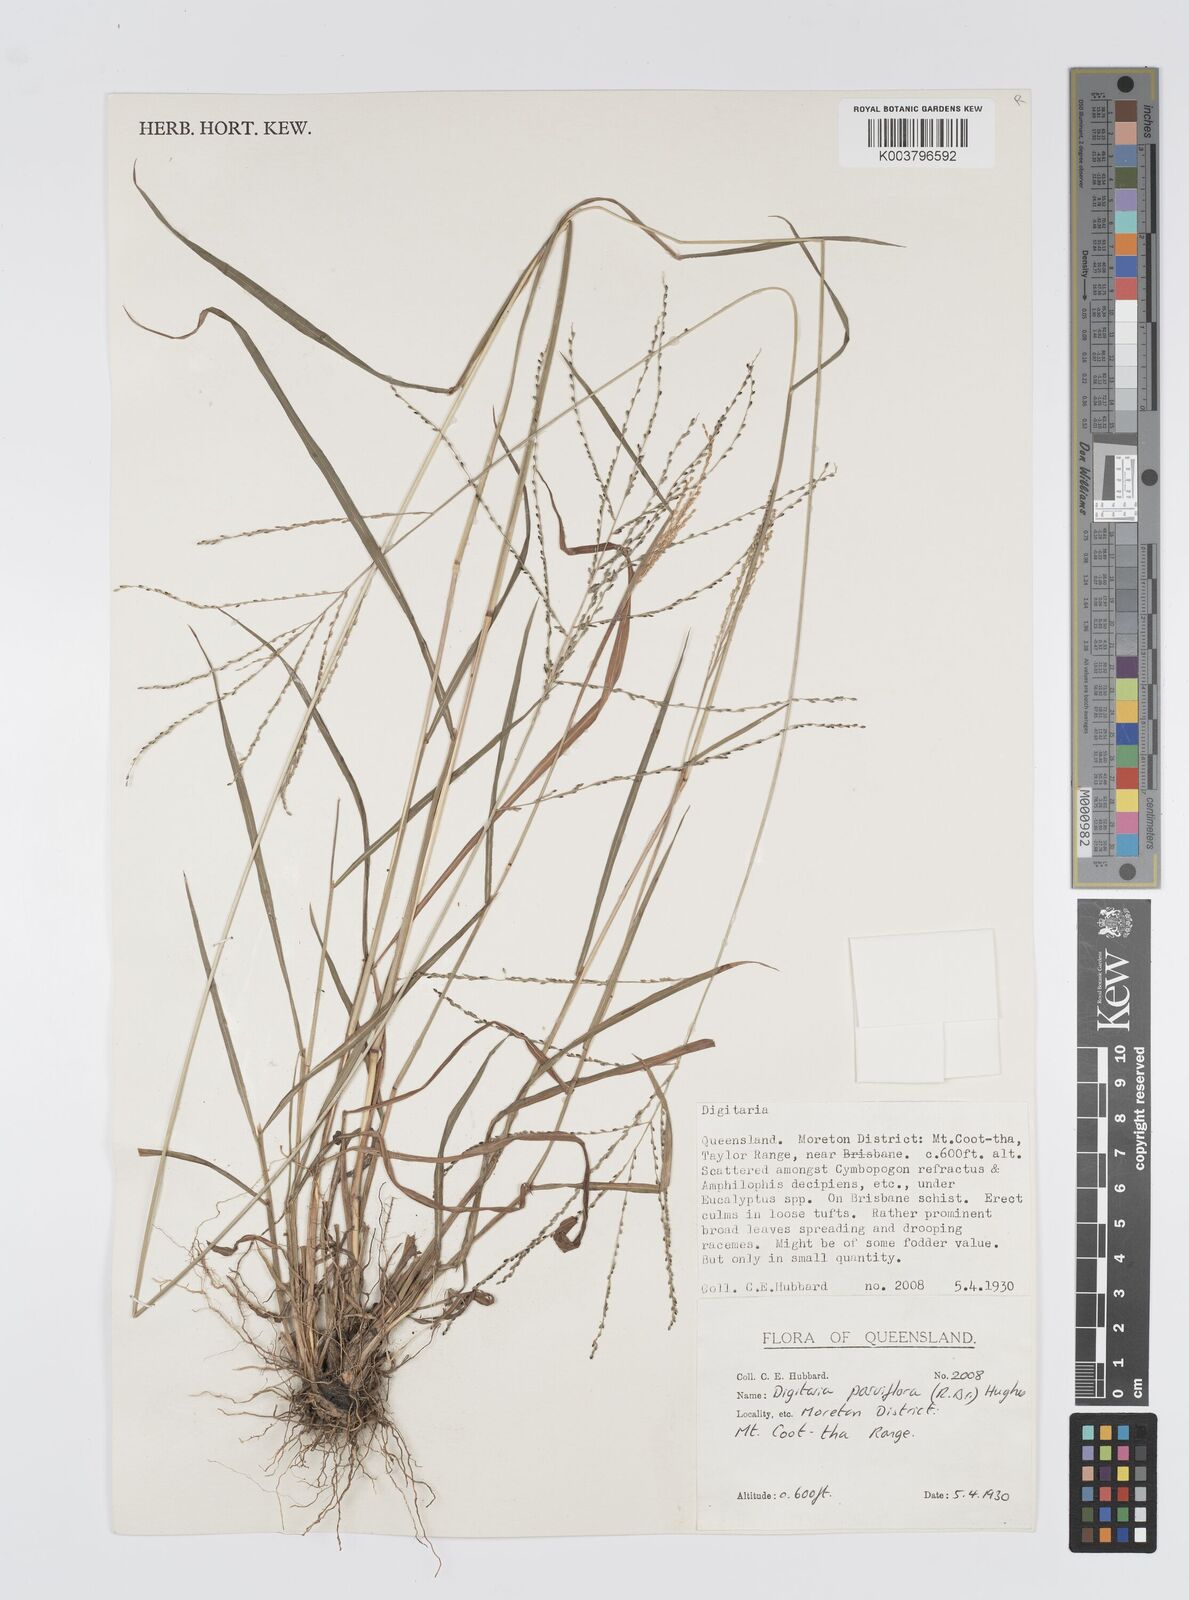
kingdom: Plantae
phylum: Tracheophyta
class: Liliopsida
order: Poales
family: Poaceae
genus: Digitaria
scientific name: Digitaria parviflora
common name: Small-flower finger grass
